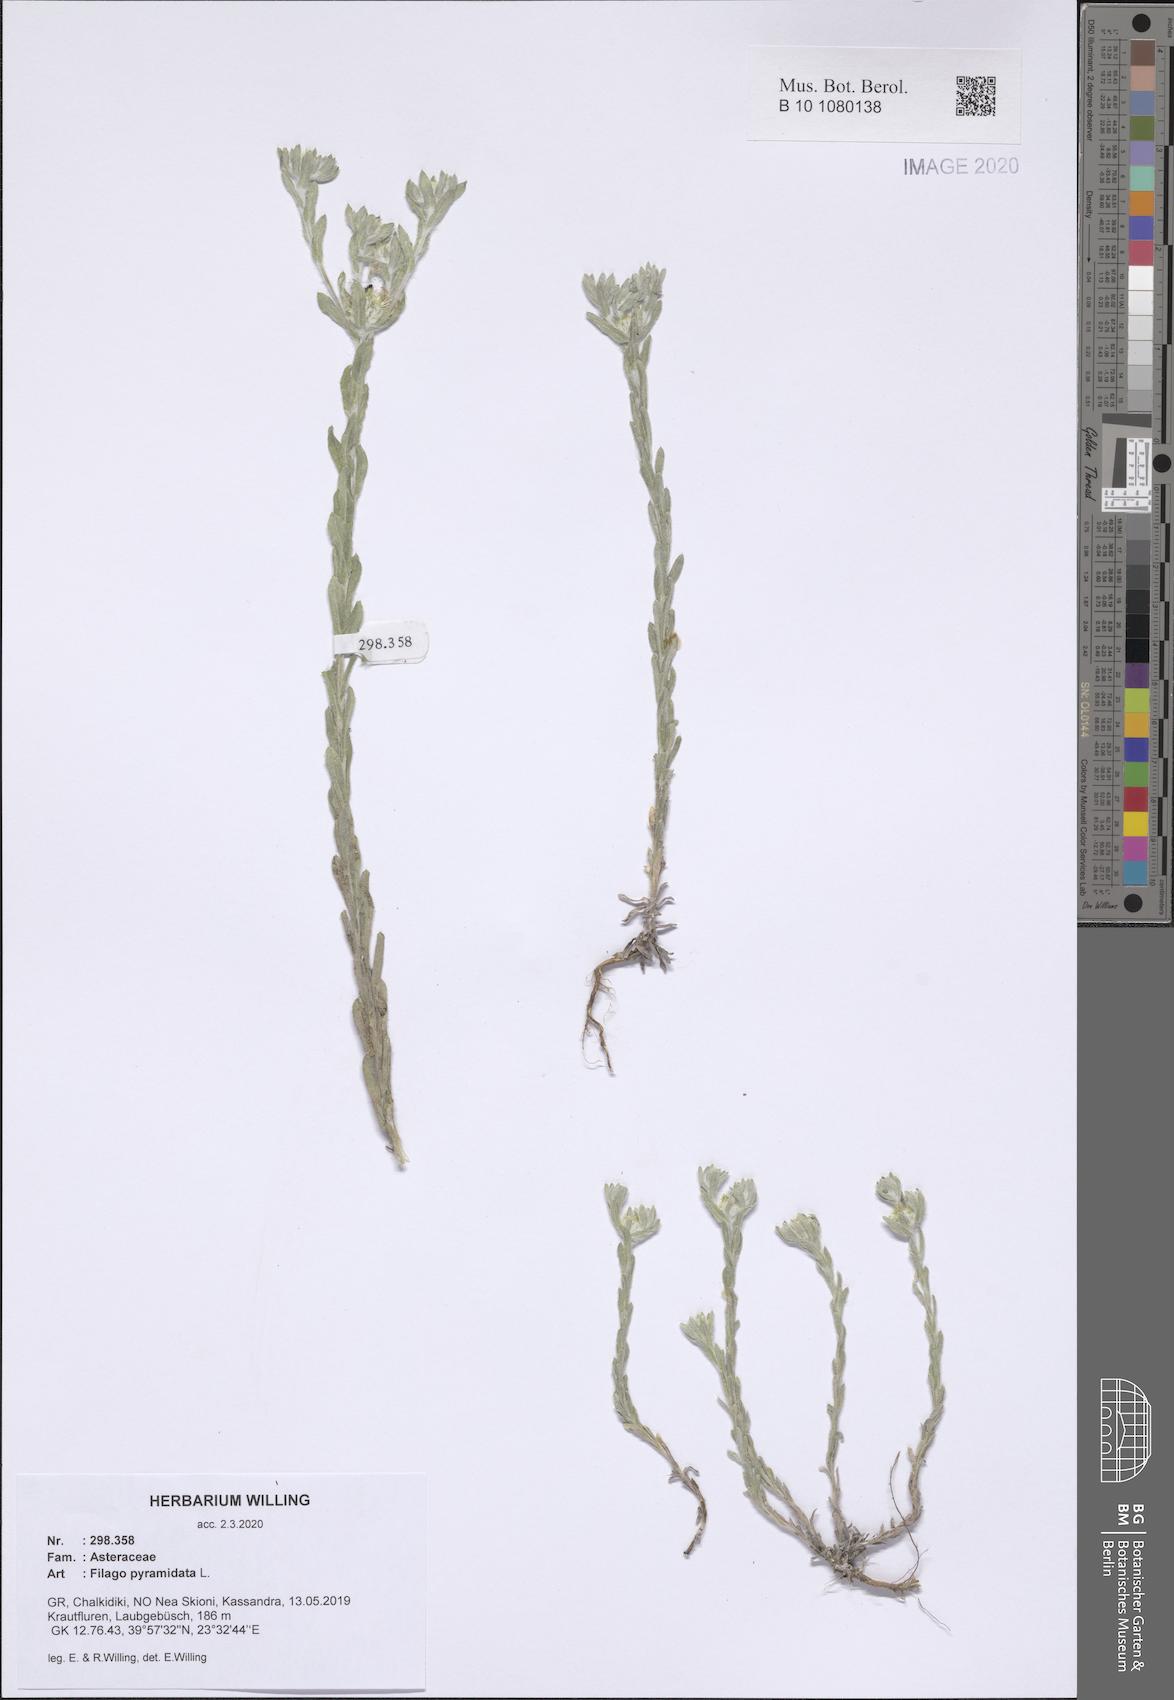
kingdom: Plantae
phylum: Tracheophyta
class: Magnoliopsida
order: Asterales
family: Asteraceae
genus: Filago
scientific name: Filago pyramidata
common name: Broad-leaved cudweed
